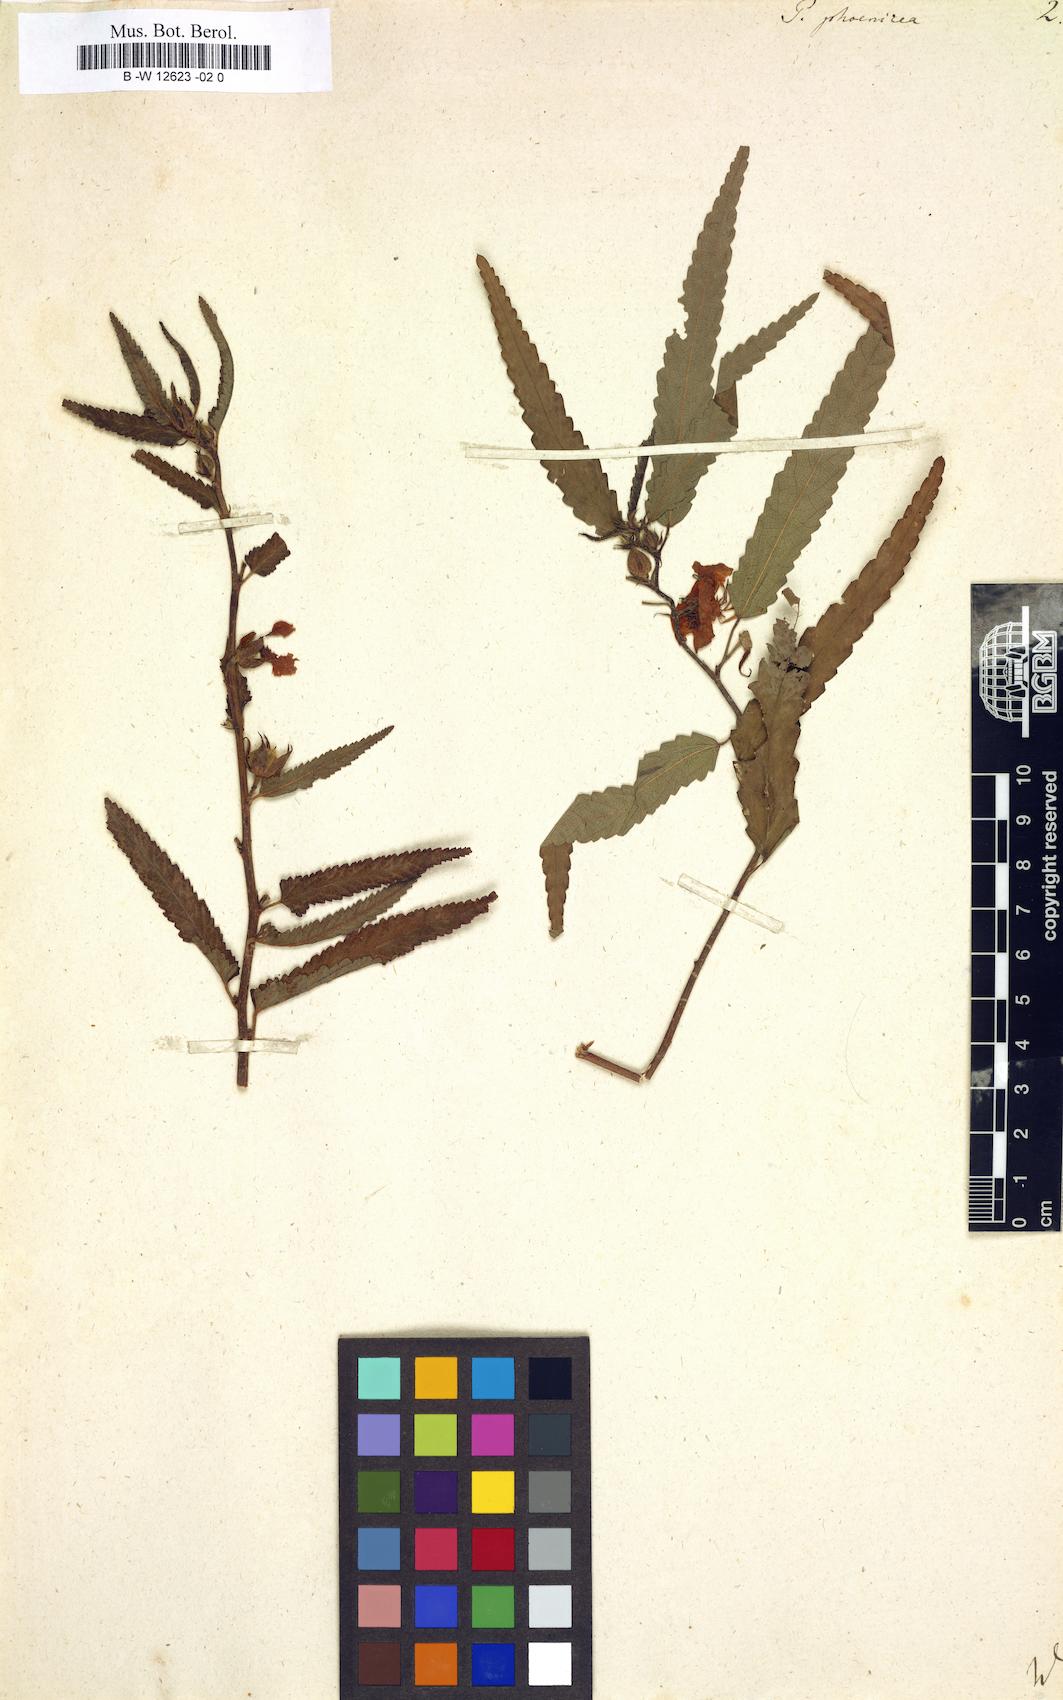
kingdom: Plantae
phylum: Tracheophyta
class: Magnoliopsida
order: Malvales
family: Malvaceae
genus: Pentapetes
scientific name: Pentapetes phoenicea
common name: Copper-cups
